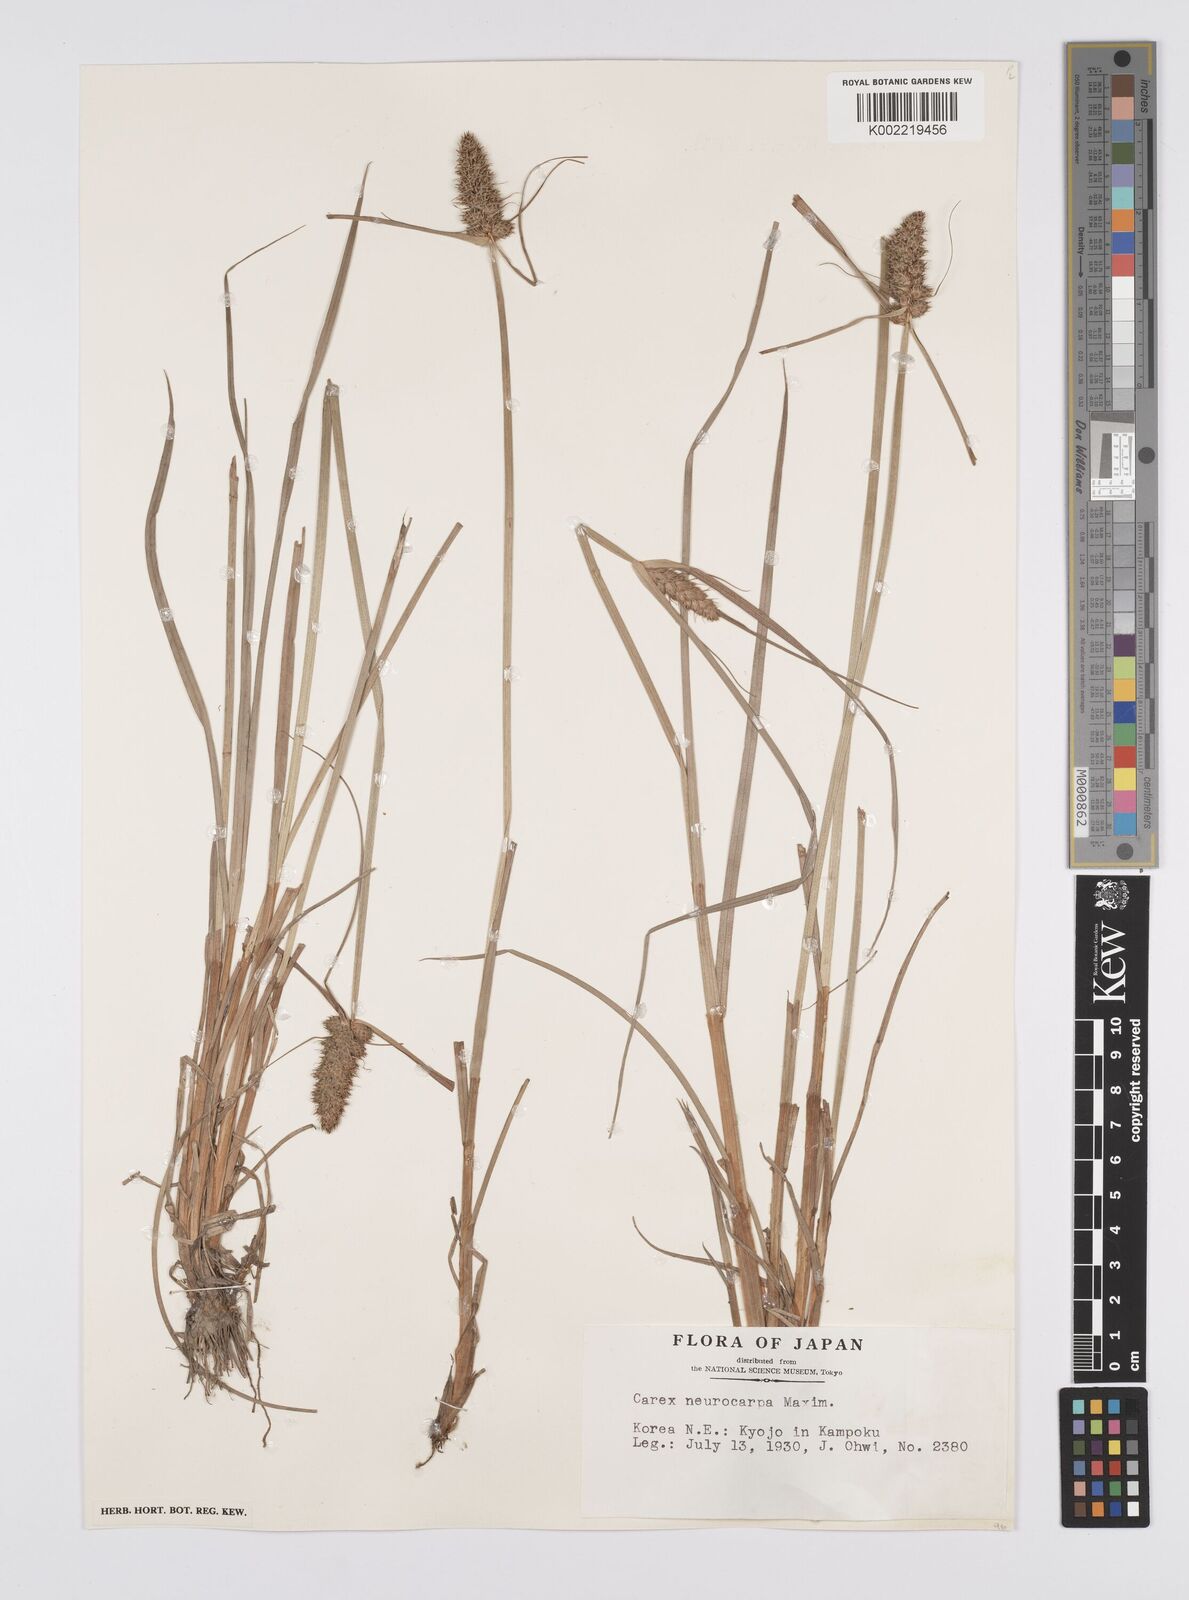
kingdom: Plantae
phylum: Tracheophyta
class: Liliopsida
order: Poales
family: Cyperaceae
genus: Carex
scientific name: Carex neurocarpa
